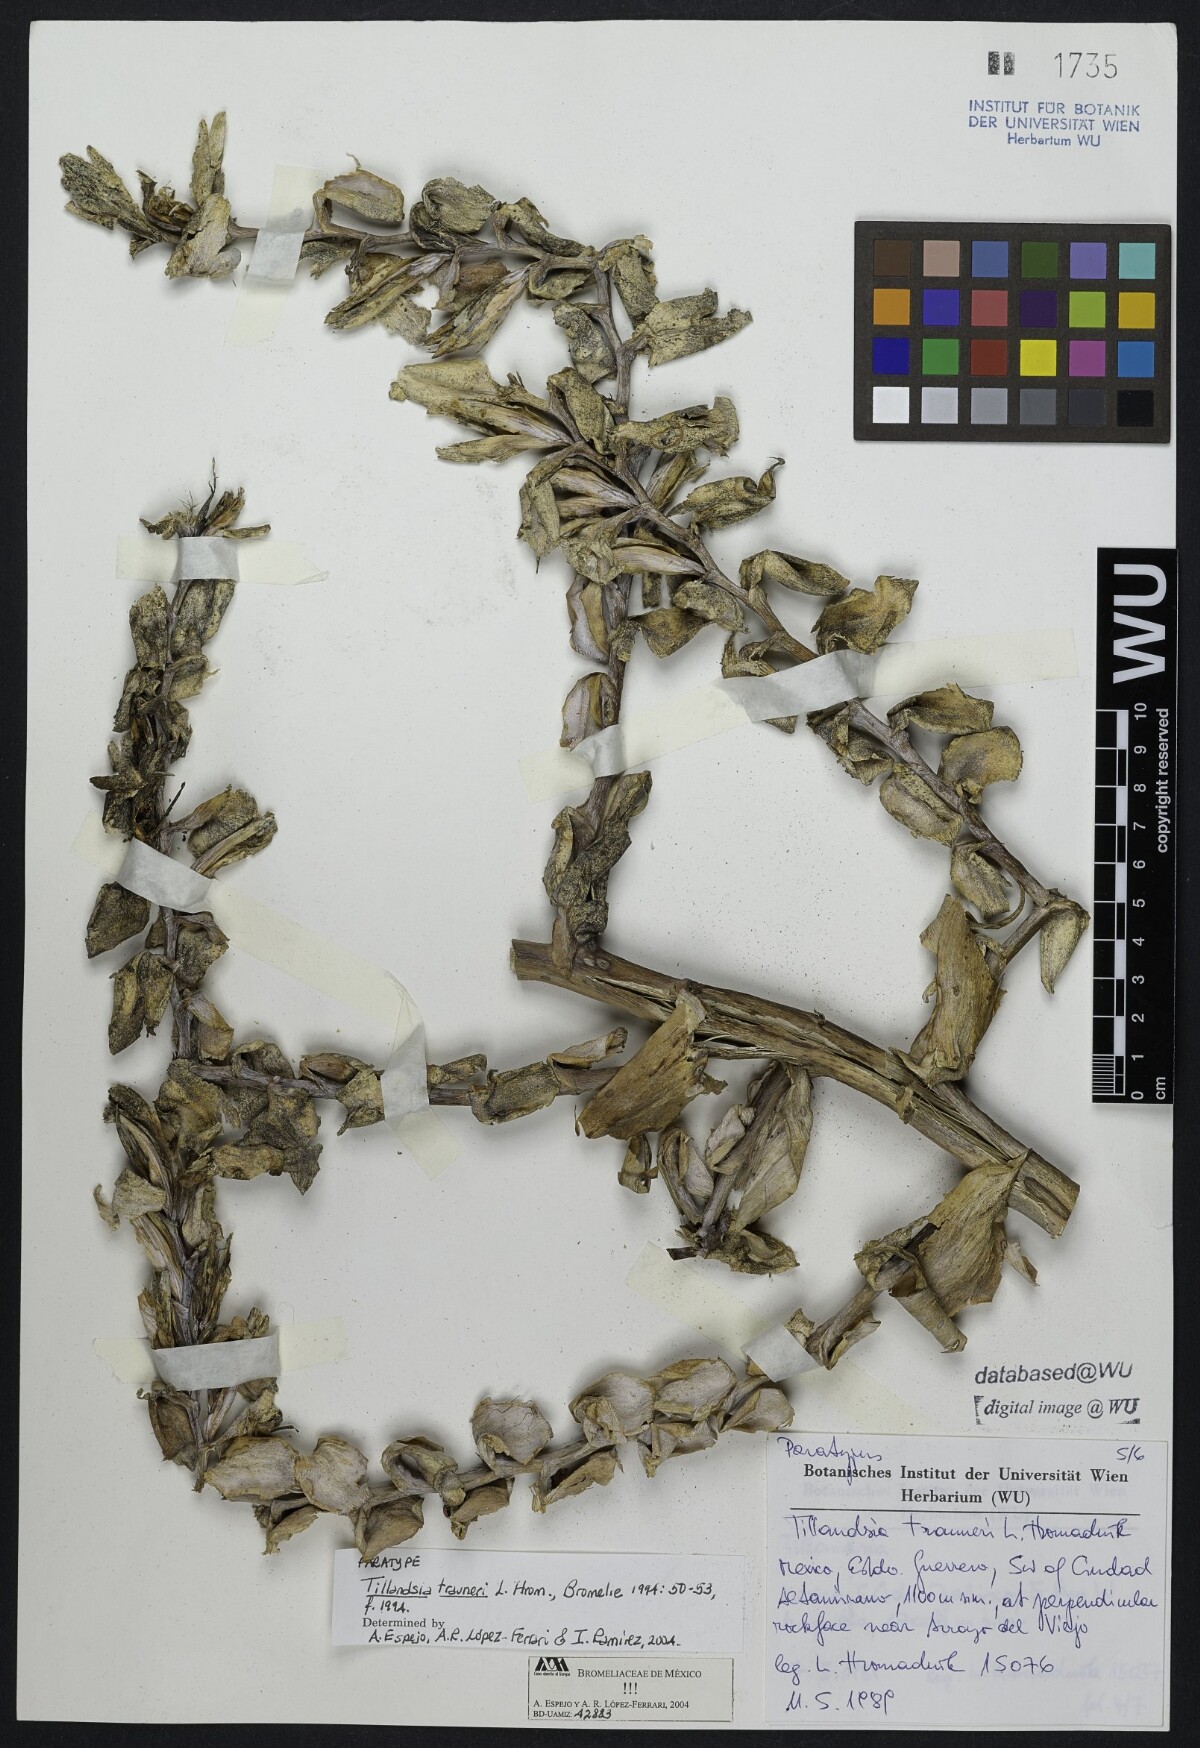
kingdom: Plantae
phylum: Tracheophyta
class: Liliopsida
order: Poales
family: Bromeliaceae
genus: Tillandsia
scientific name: Tillandsia trauneri
